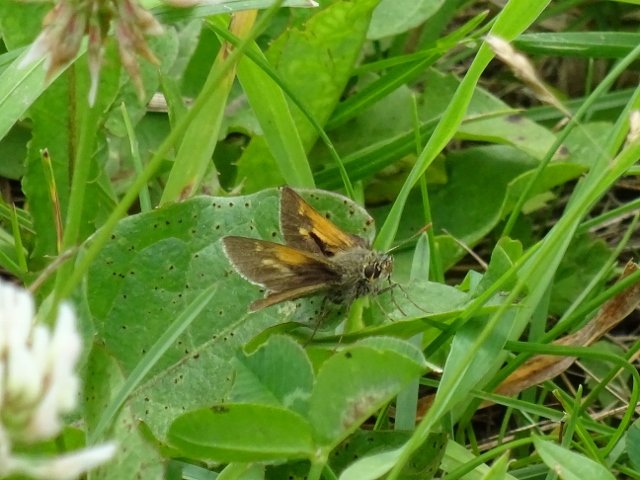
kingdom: Animalia
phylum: Arthropoda
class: Insecta
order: Lepidoptera
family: Hesperiidae
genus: Polites
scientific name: Polites themistocles
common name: Tawny-edged Skipper
